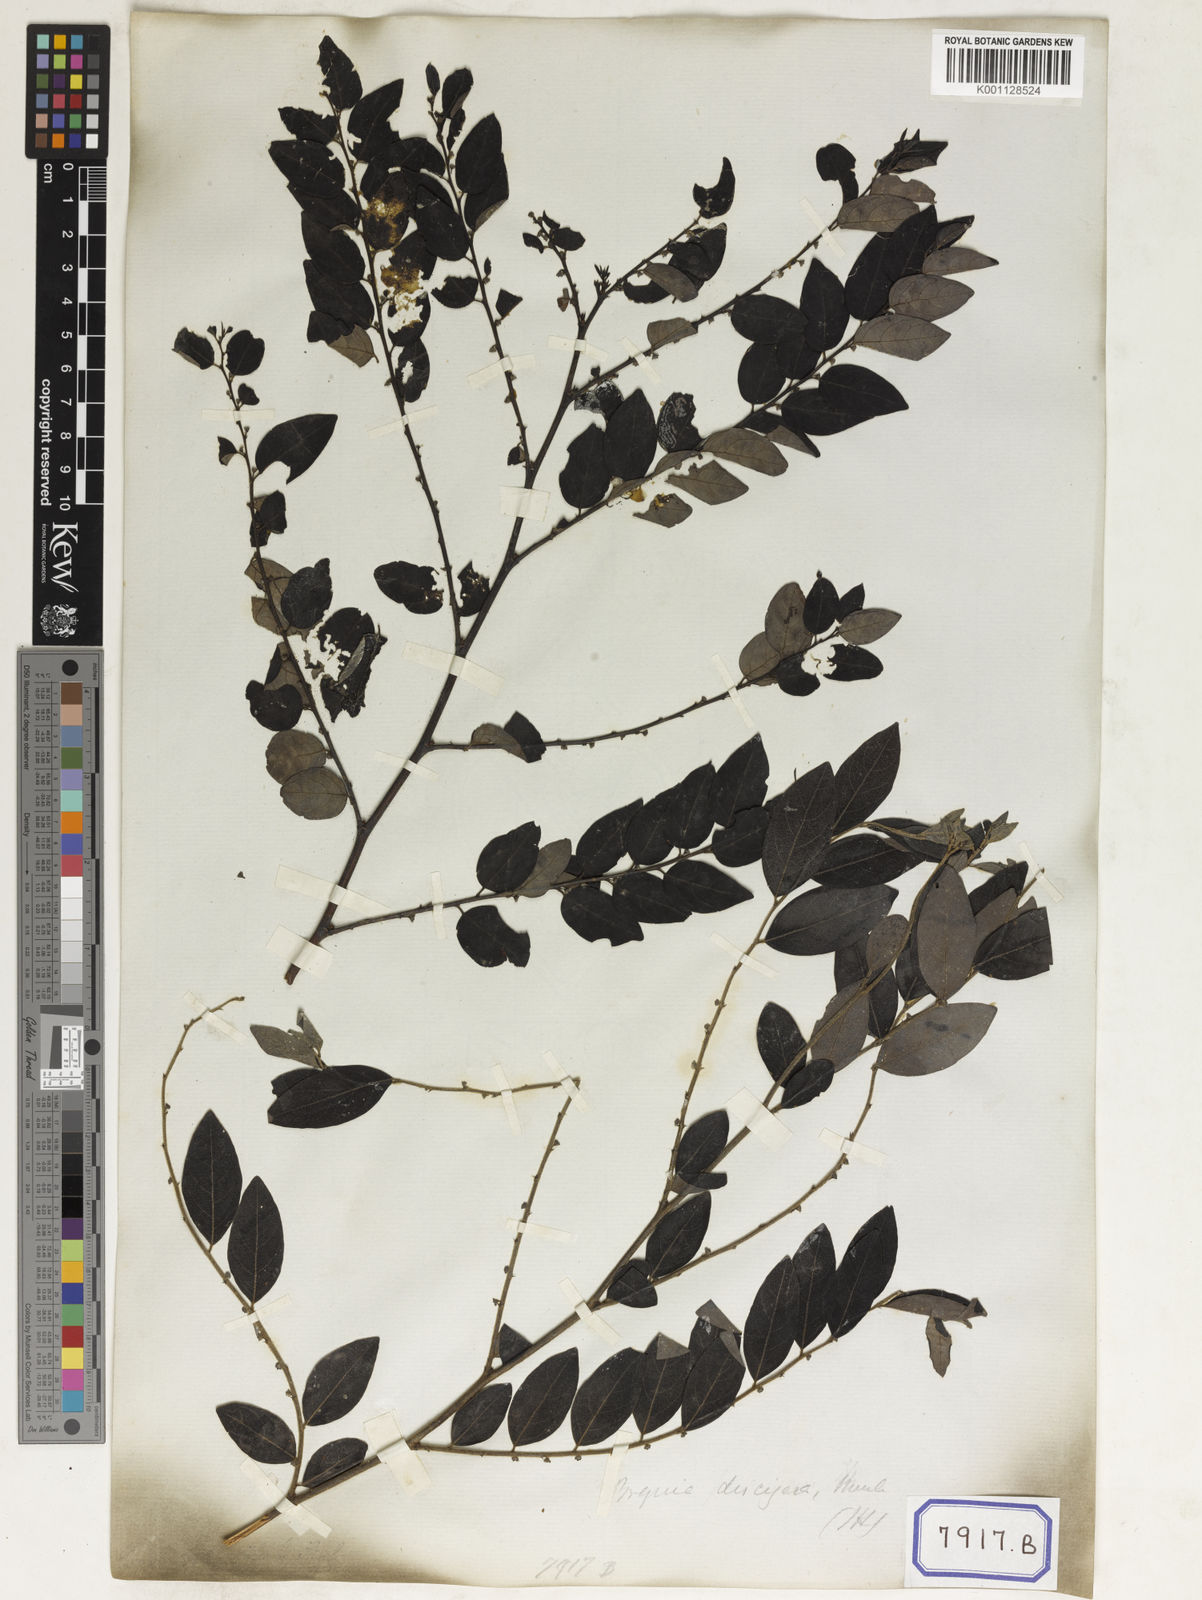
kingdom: Plantae
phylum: Tracheophyta
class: Magnoliopsida
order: Malpighiales
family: Phyllanthaceae
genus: Phyllanthus
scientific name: Phyllanthus
